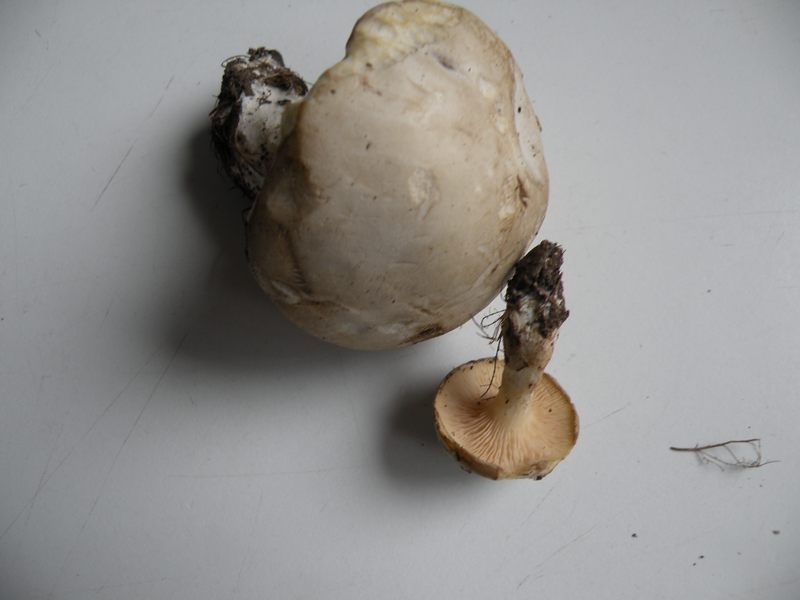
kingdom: Fungi
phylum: Basidiomycota
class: Agaricomycetes
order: Agaricales
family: Entolomataceae
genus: Clitopilus
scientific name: Clitopilus prunulus
